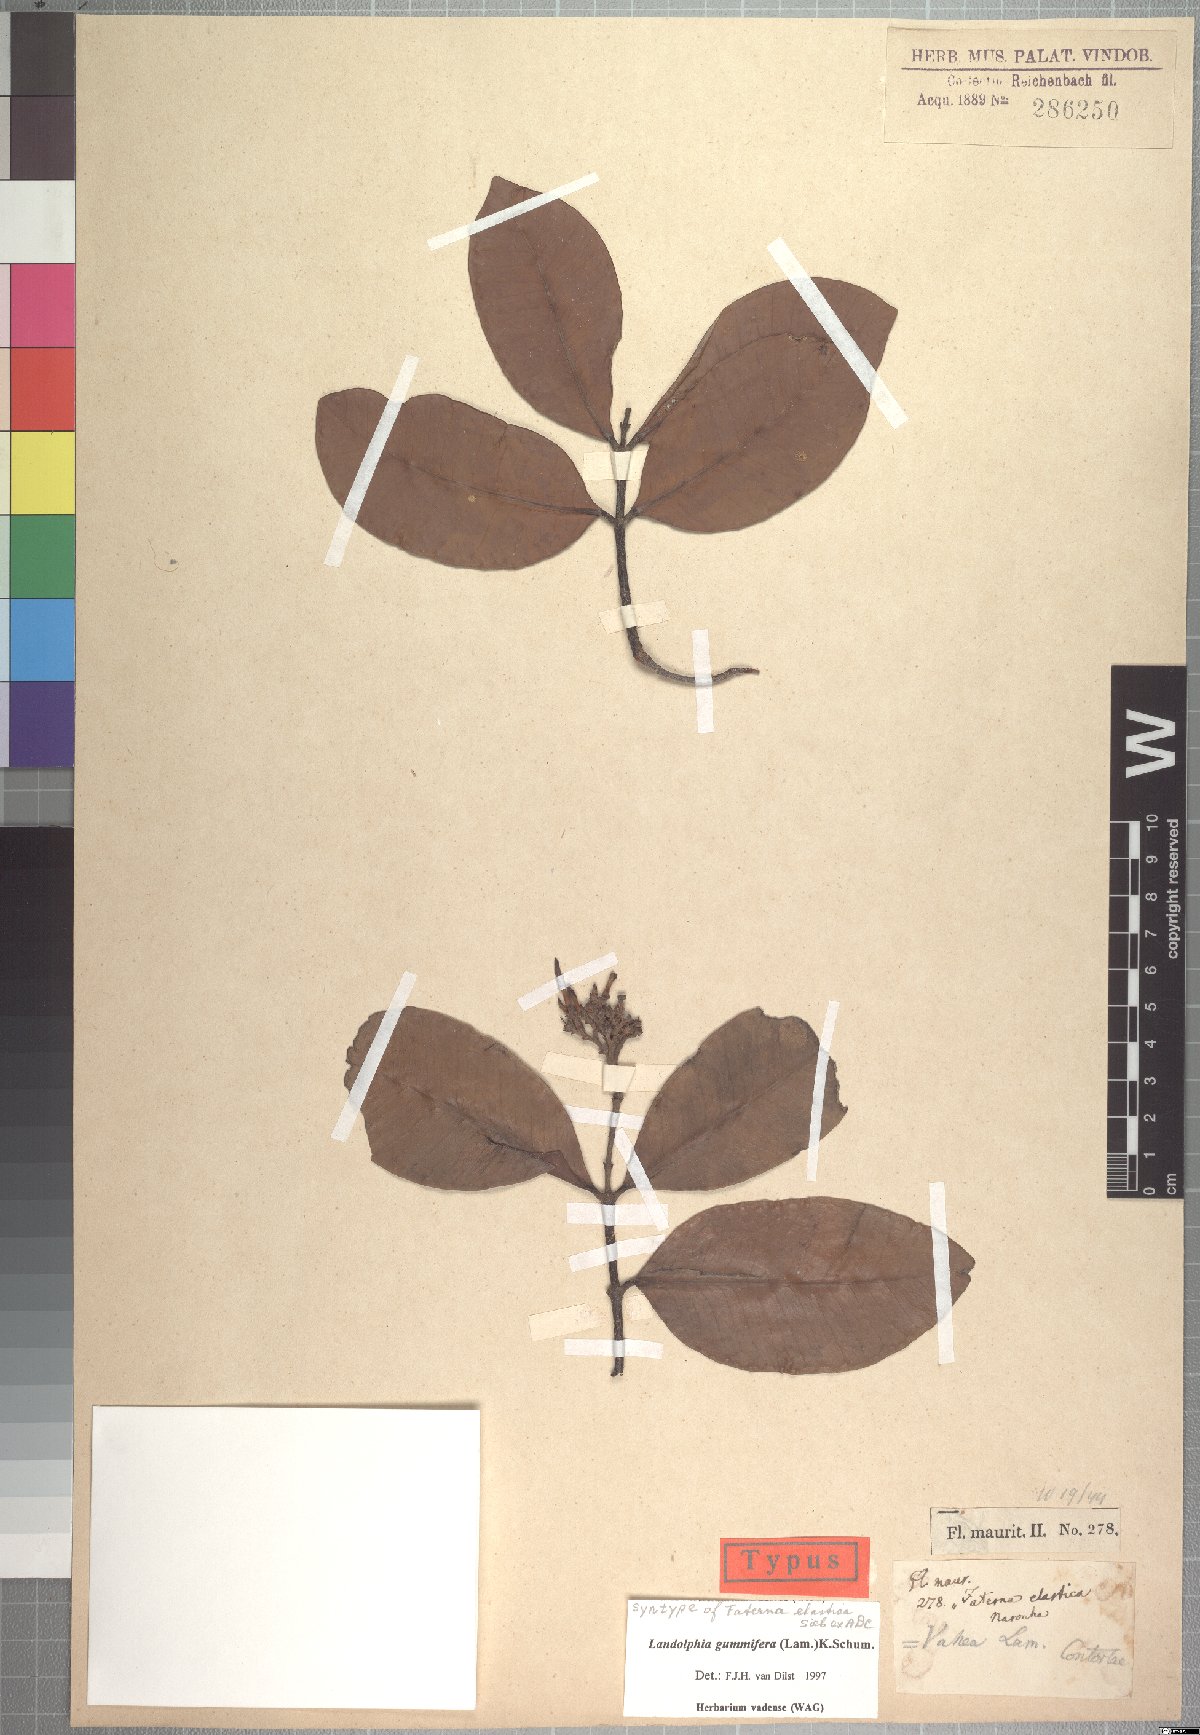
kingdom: Plantae
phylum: Tracheophyta
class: Magnoliopsida
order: Gentianales
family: Apocynaceae
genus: Landolphia
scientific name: Landolphia gummifera
